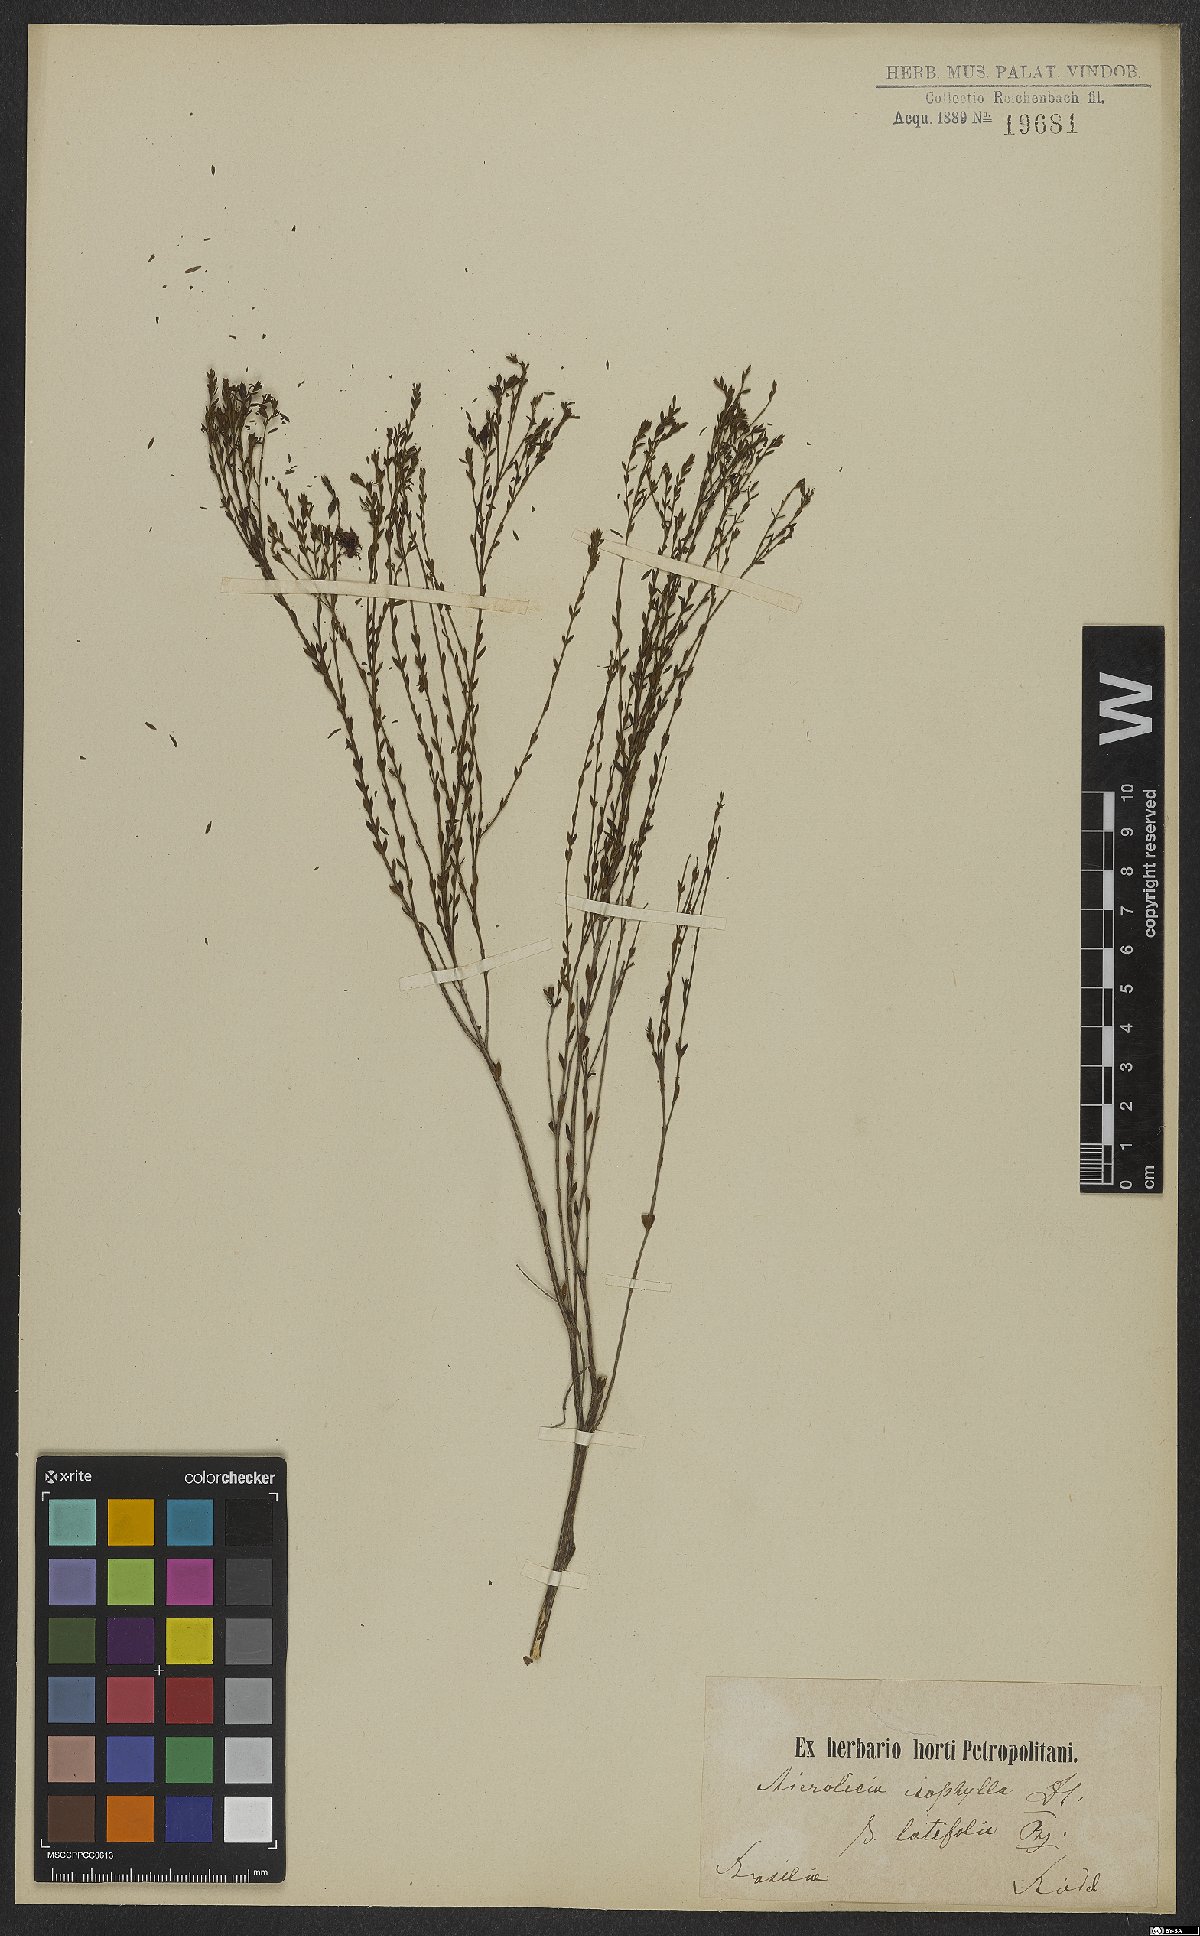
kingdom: Plantae
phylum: Tracheophyta
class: Magnoliopsida
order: Myrtales
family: Melastomataceae
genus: Microlicia
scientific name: Microlicia isophylla
